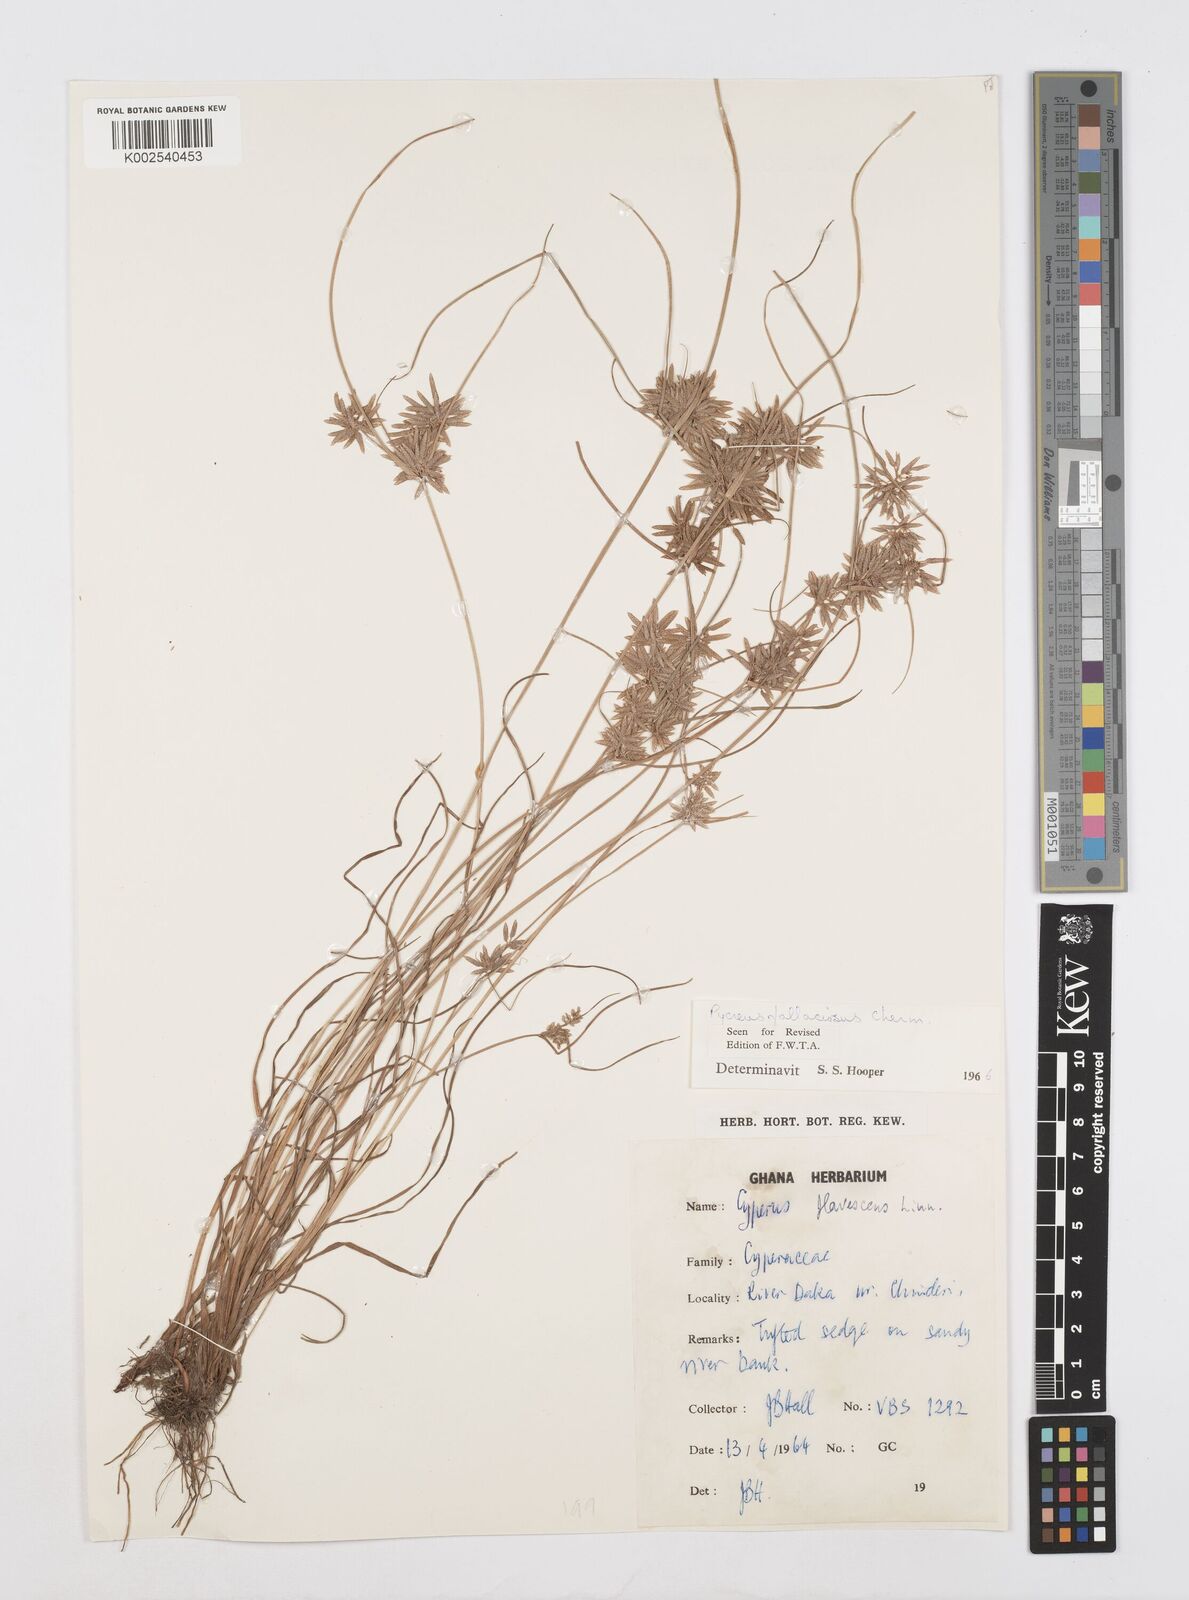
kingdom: Plantae
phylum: Tracheophyta
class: Liliopsida
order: Poales
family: Cyperaceae
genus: Cyperus
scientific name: Cyperus flavescens
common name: Yellow galingale
